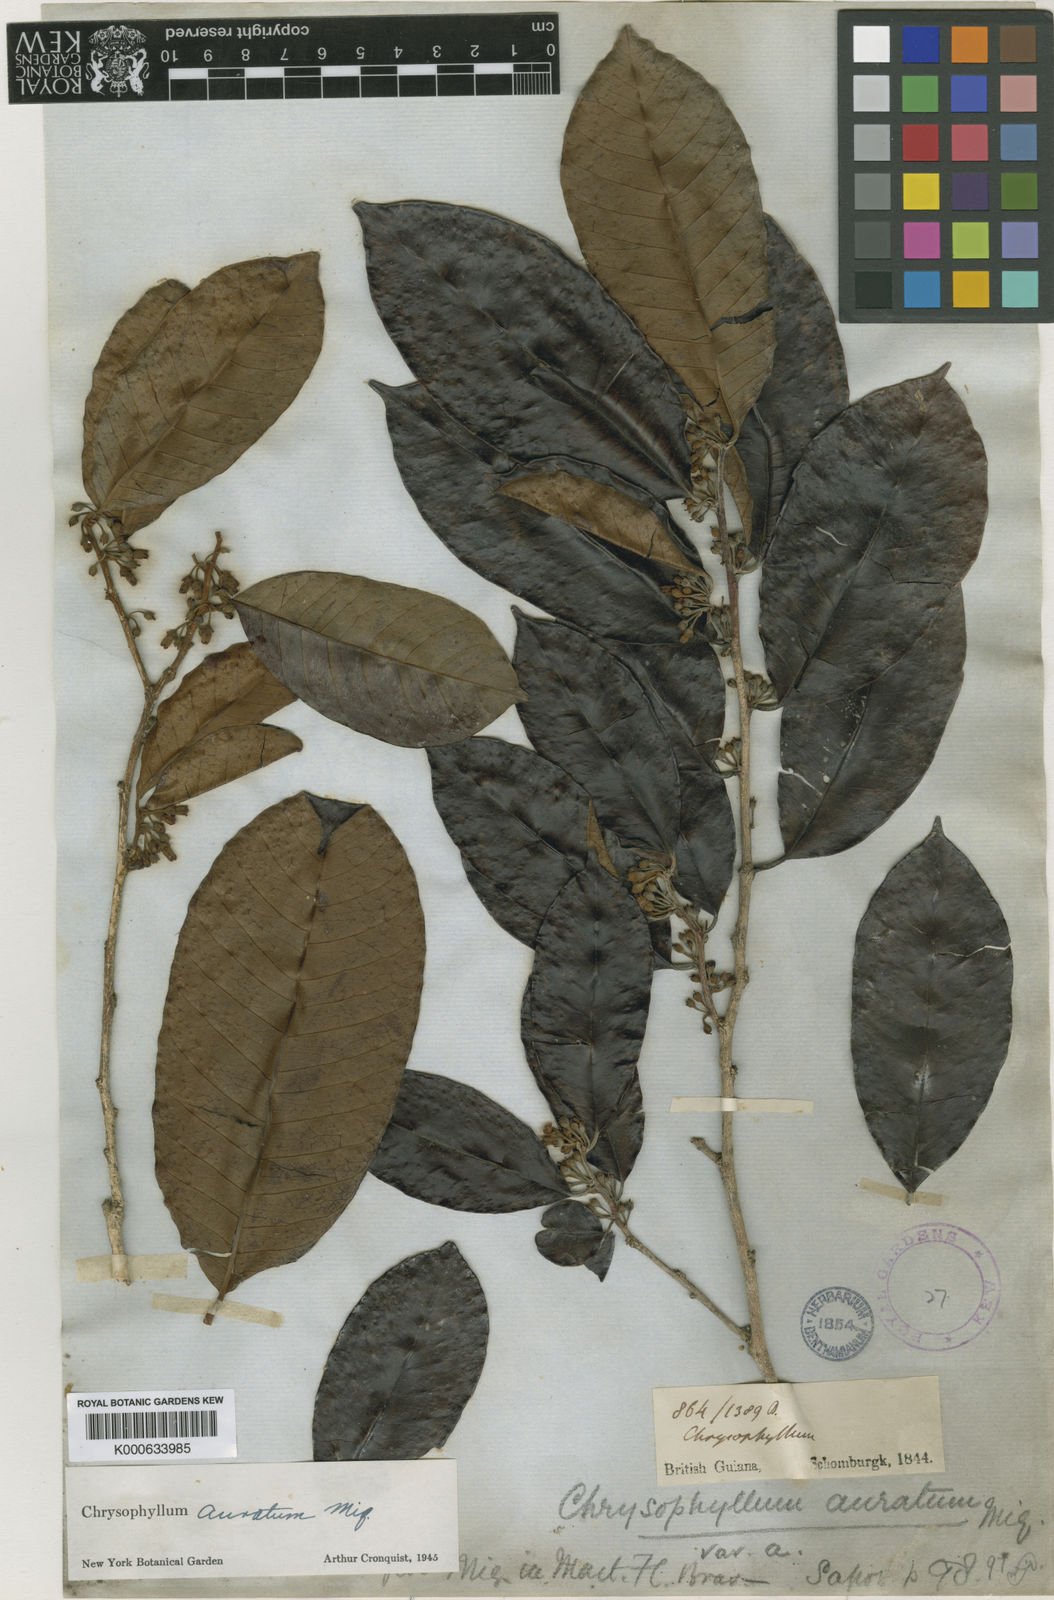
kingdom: Plantae
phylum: Tracheophyta
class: Magnoliopsida
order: Ericales
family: Sapotaceae
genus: Chrysophyllum
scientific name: Chrysophyllum argenteum
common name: Smooth star apple
